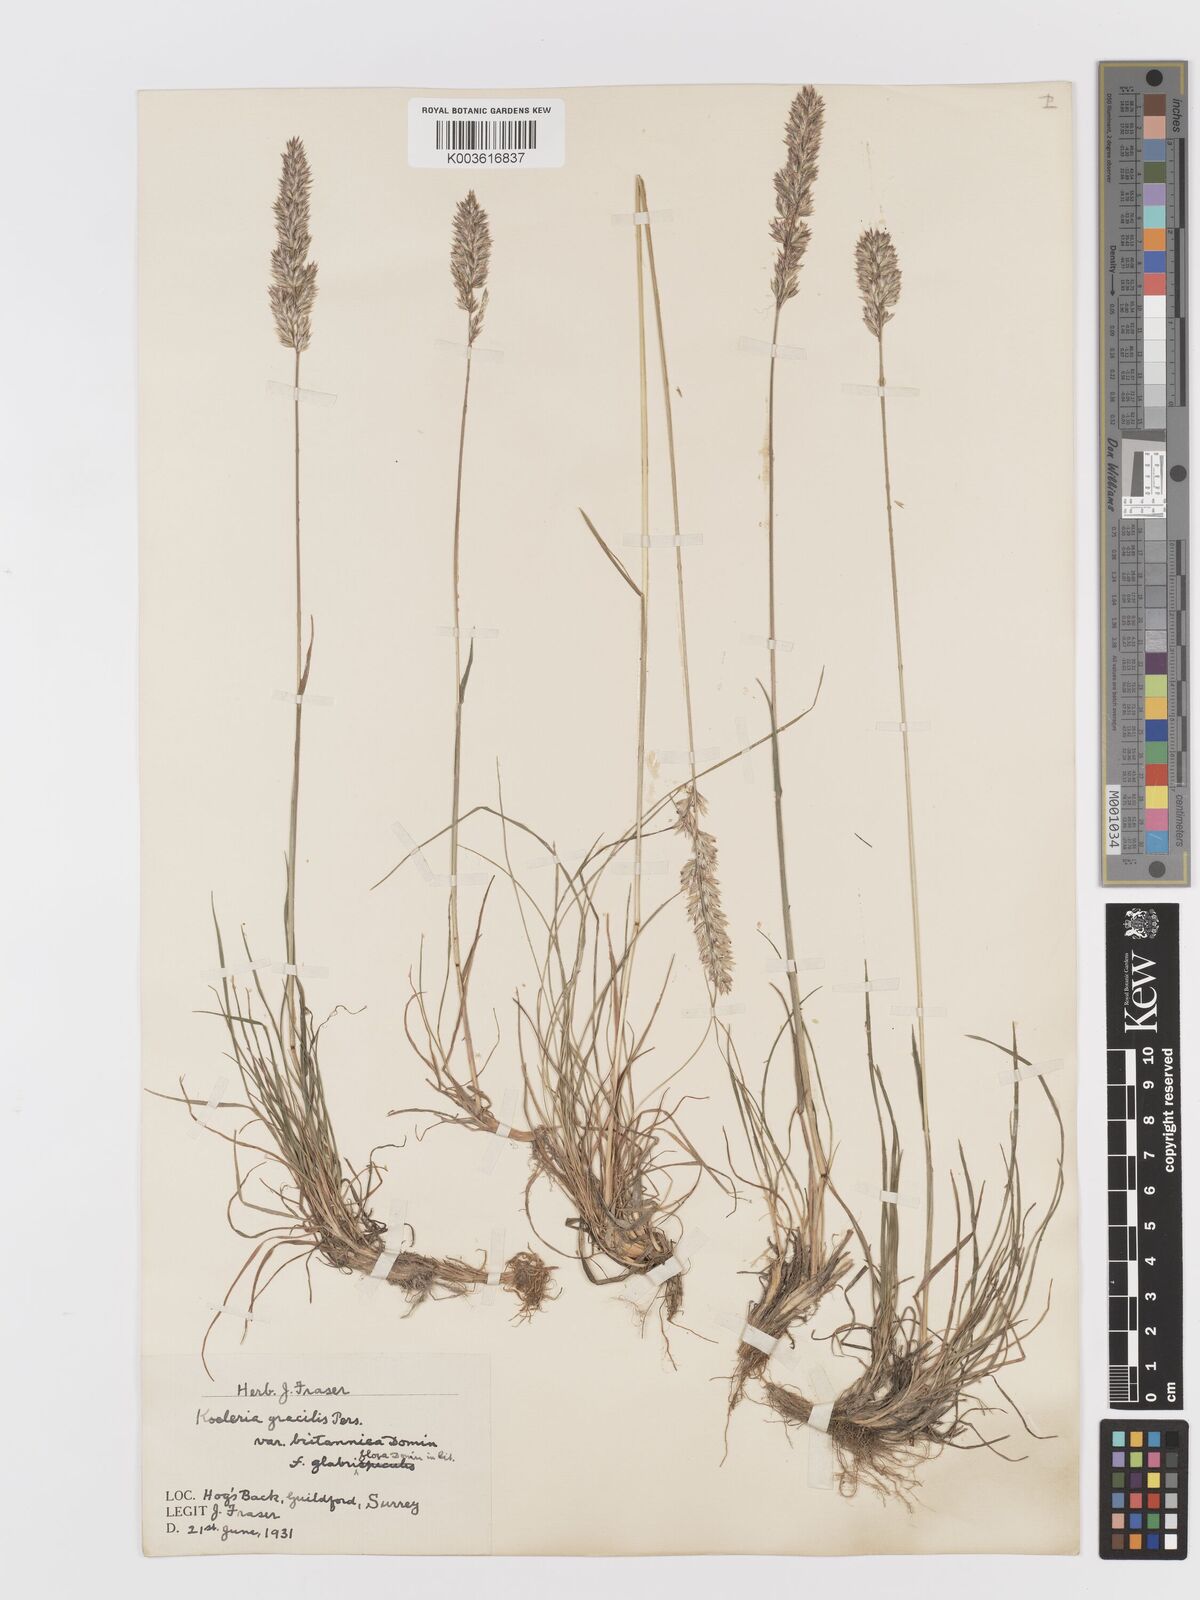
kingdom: Plantae
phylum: Tracheophyta
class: Liliopsida
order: Poales
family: Poaceae
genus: Koeleria
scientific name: Koeleria
